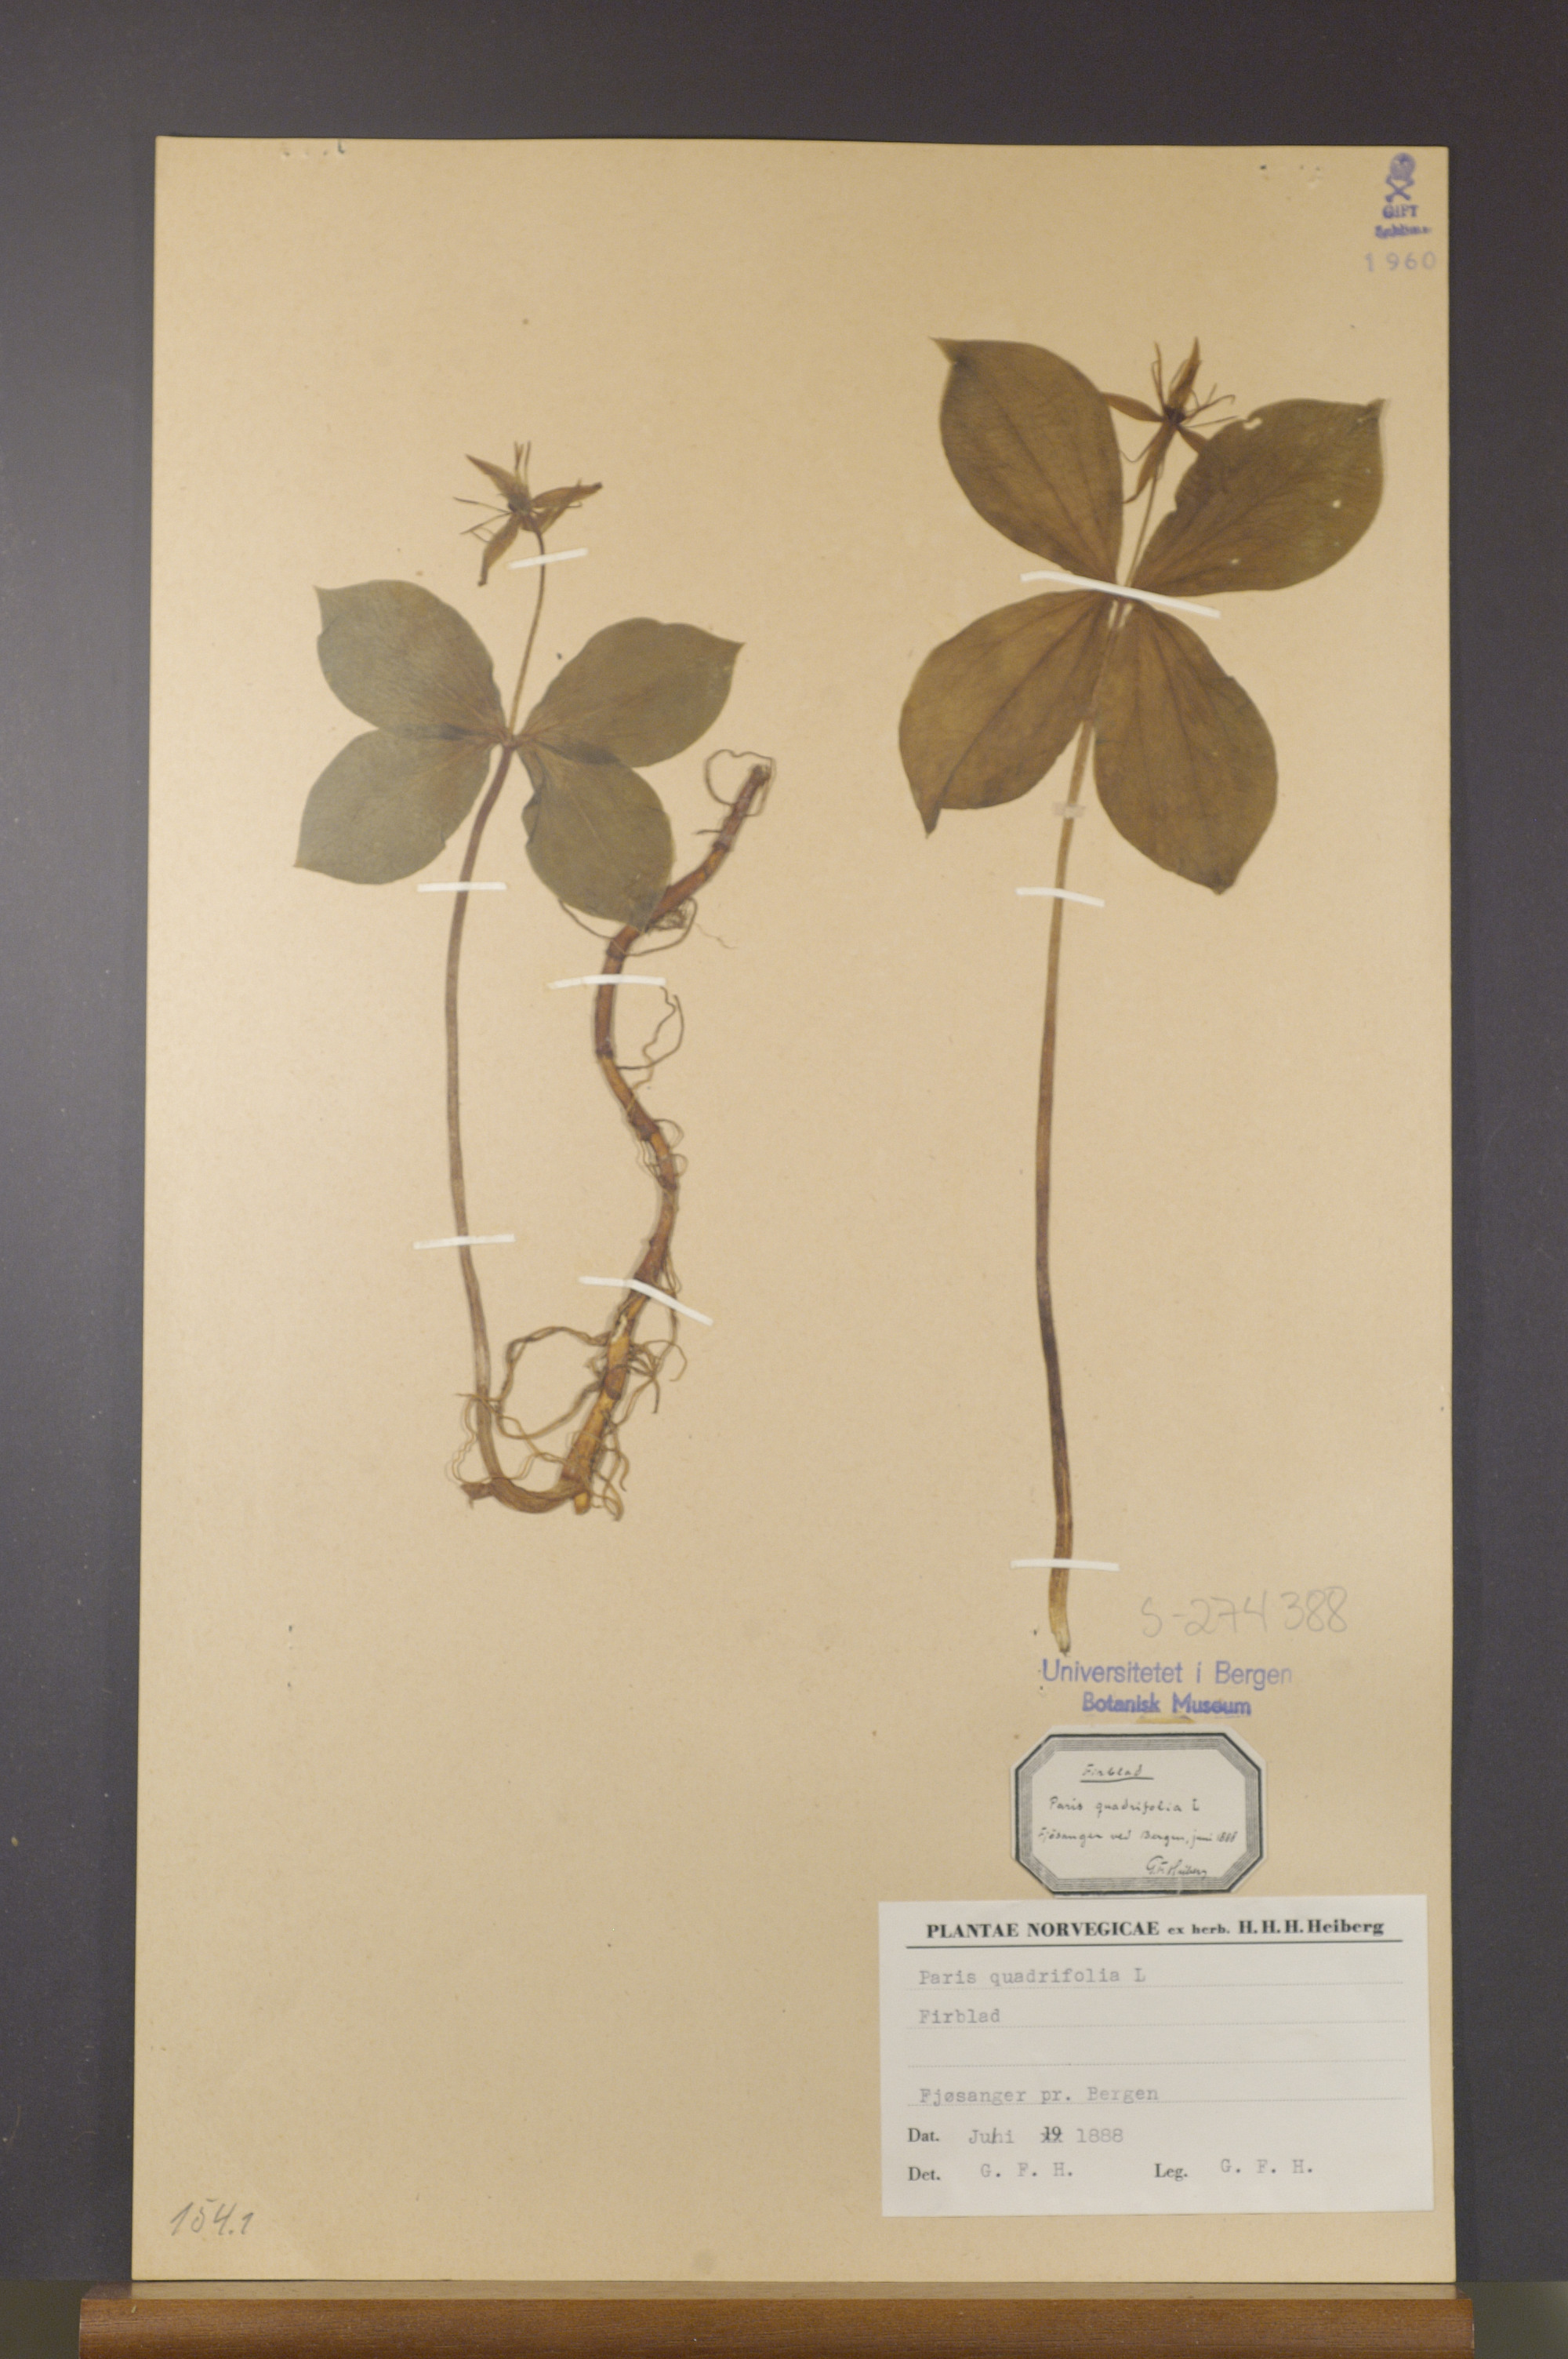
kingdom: Plantae
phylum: Tracheophyta
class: Liliopsida
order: Liliales
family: Melanthiaceae
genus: Paris
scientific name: Paris quadrifolia
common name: Herb-paris
